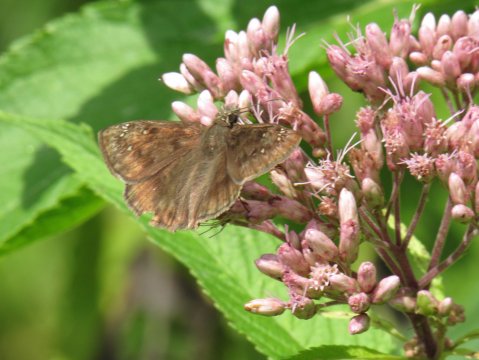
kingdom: Animalia
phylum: Arthropoda
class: Insecta
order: Lepidoptera
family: Hesperiidae
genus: Gesta
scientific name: Gesta
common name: Horace's Duskywing
